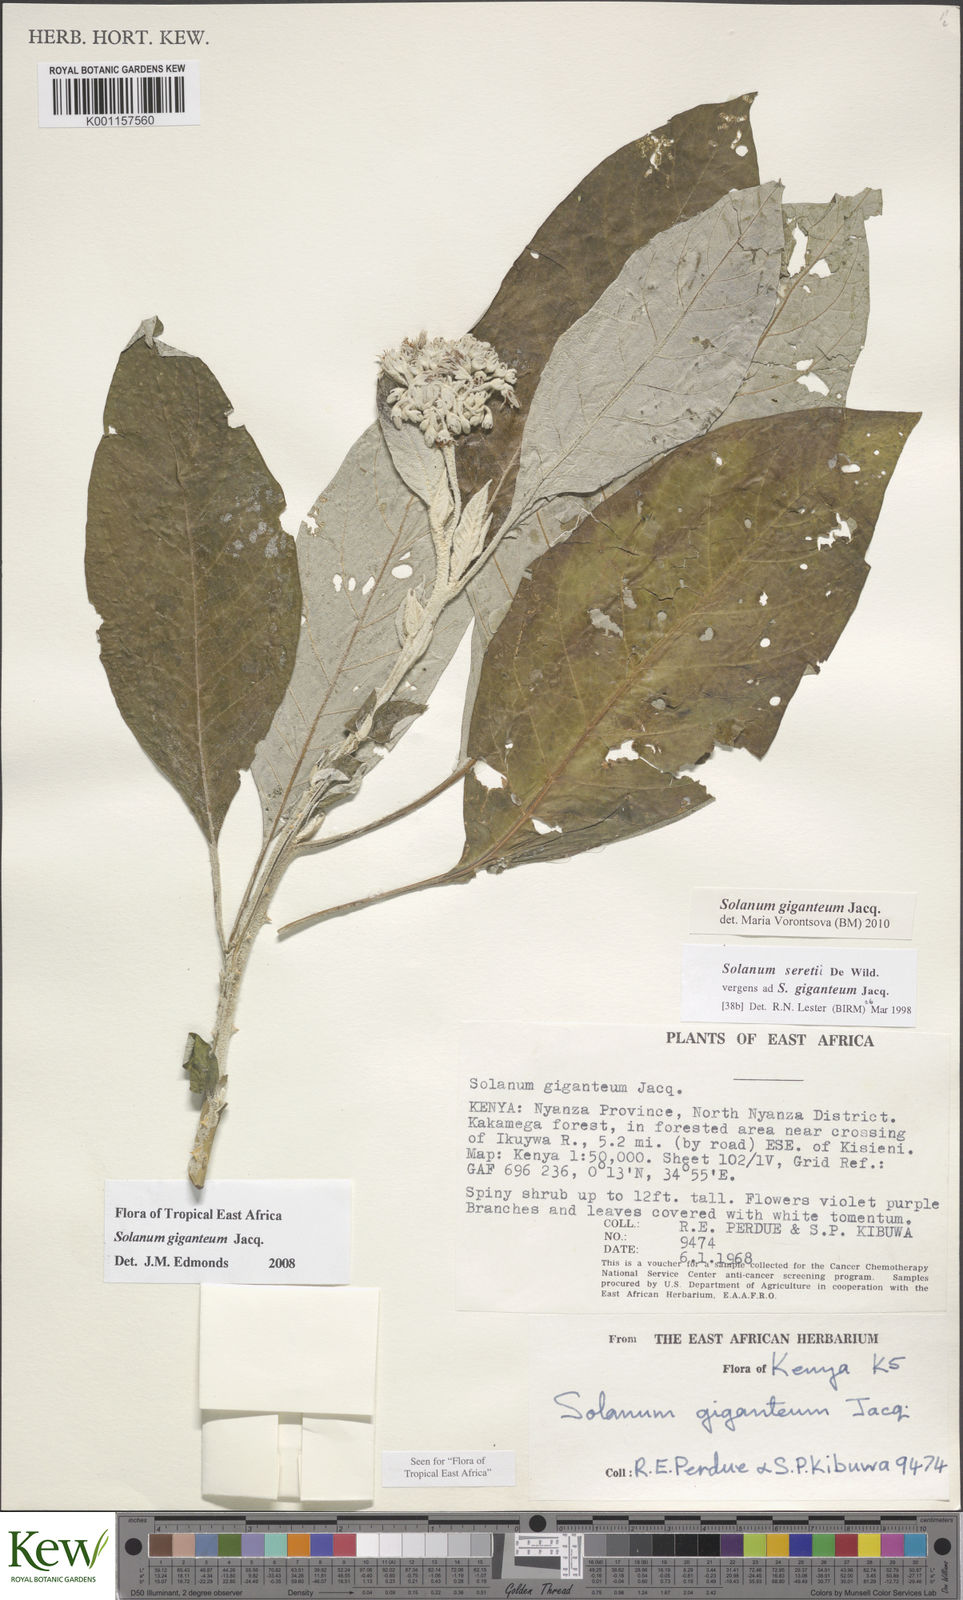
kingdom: Plantae
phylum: Tracheophyta
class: Magnoliopsida
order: Solanales
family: Solanaceae
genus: Solanum
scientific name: Solanum giganteum
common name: Healing-leaf-tree
